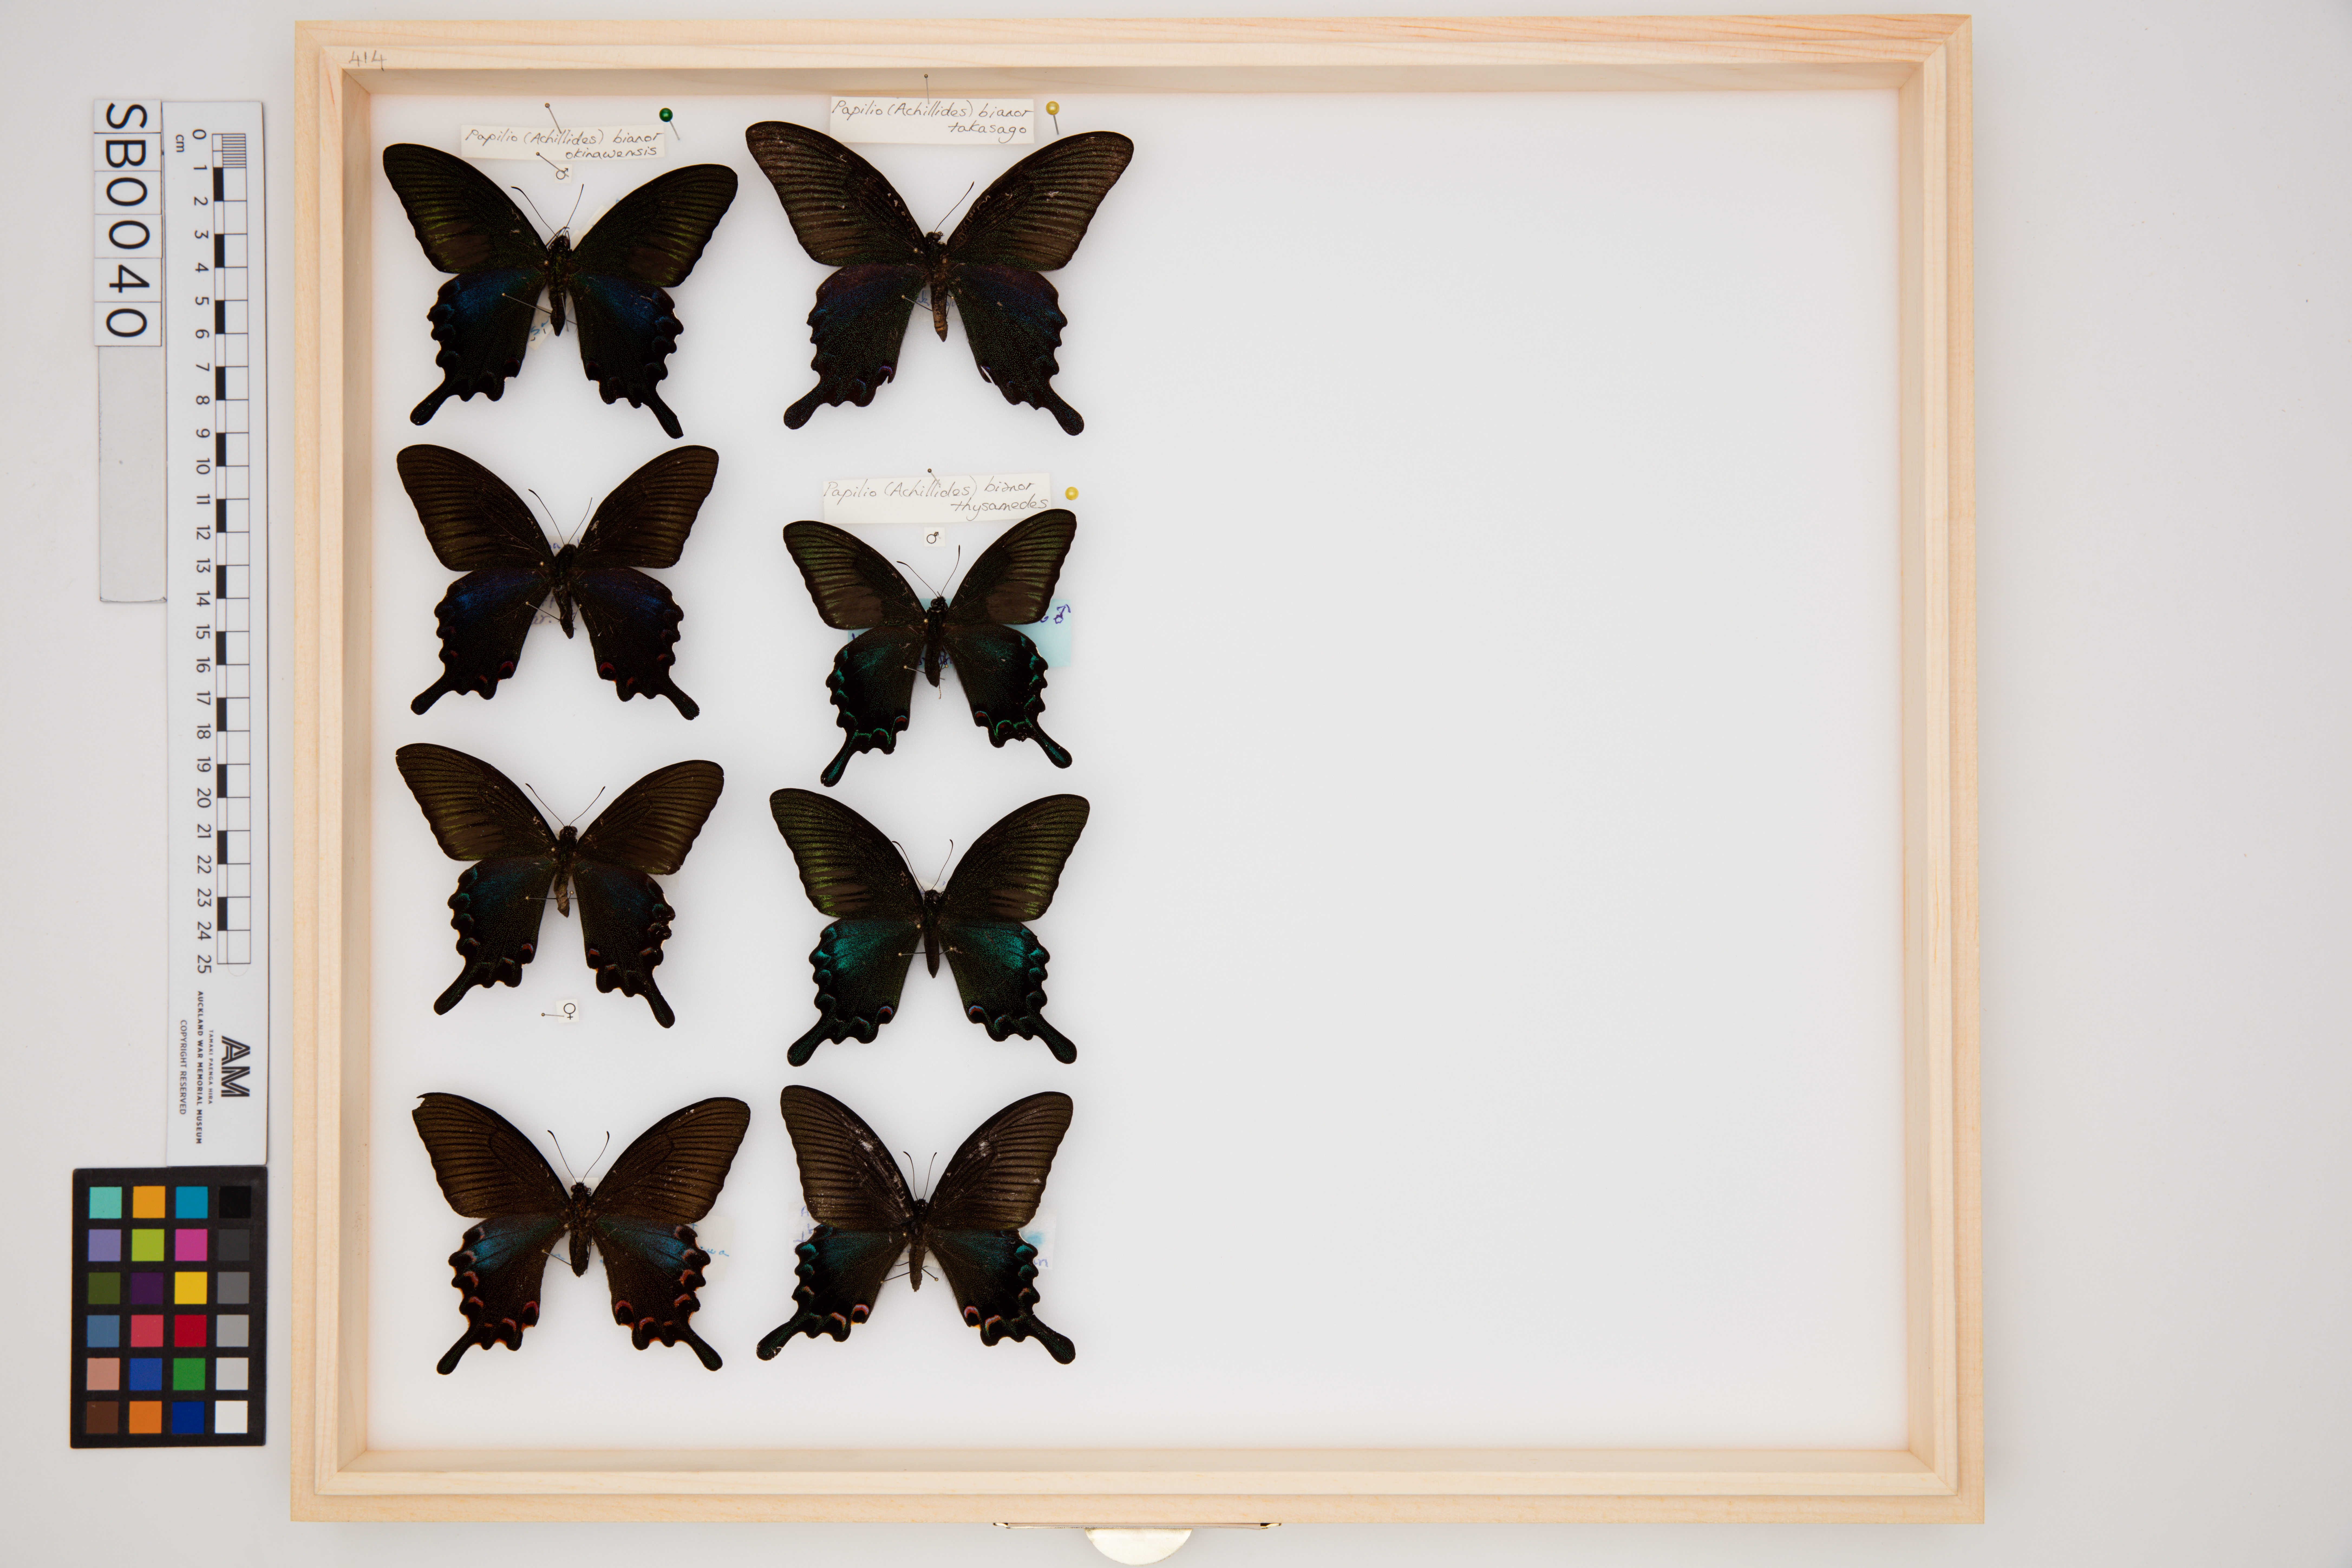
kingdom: Animalia
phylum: Arthropoda
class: Insecta
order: Lepidoptera
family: Papilionidae
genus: Papilio
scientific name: Papilio bianor
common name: Common peacock
